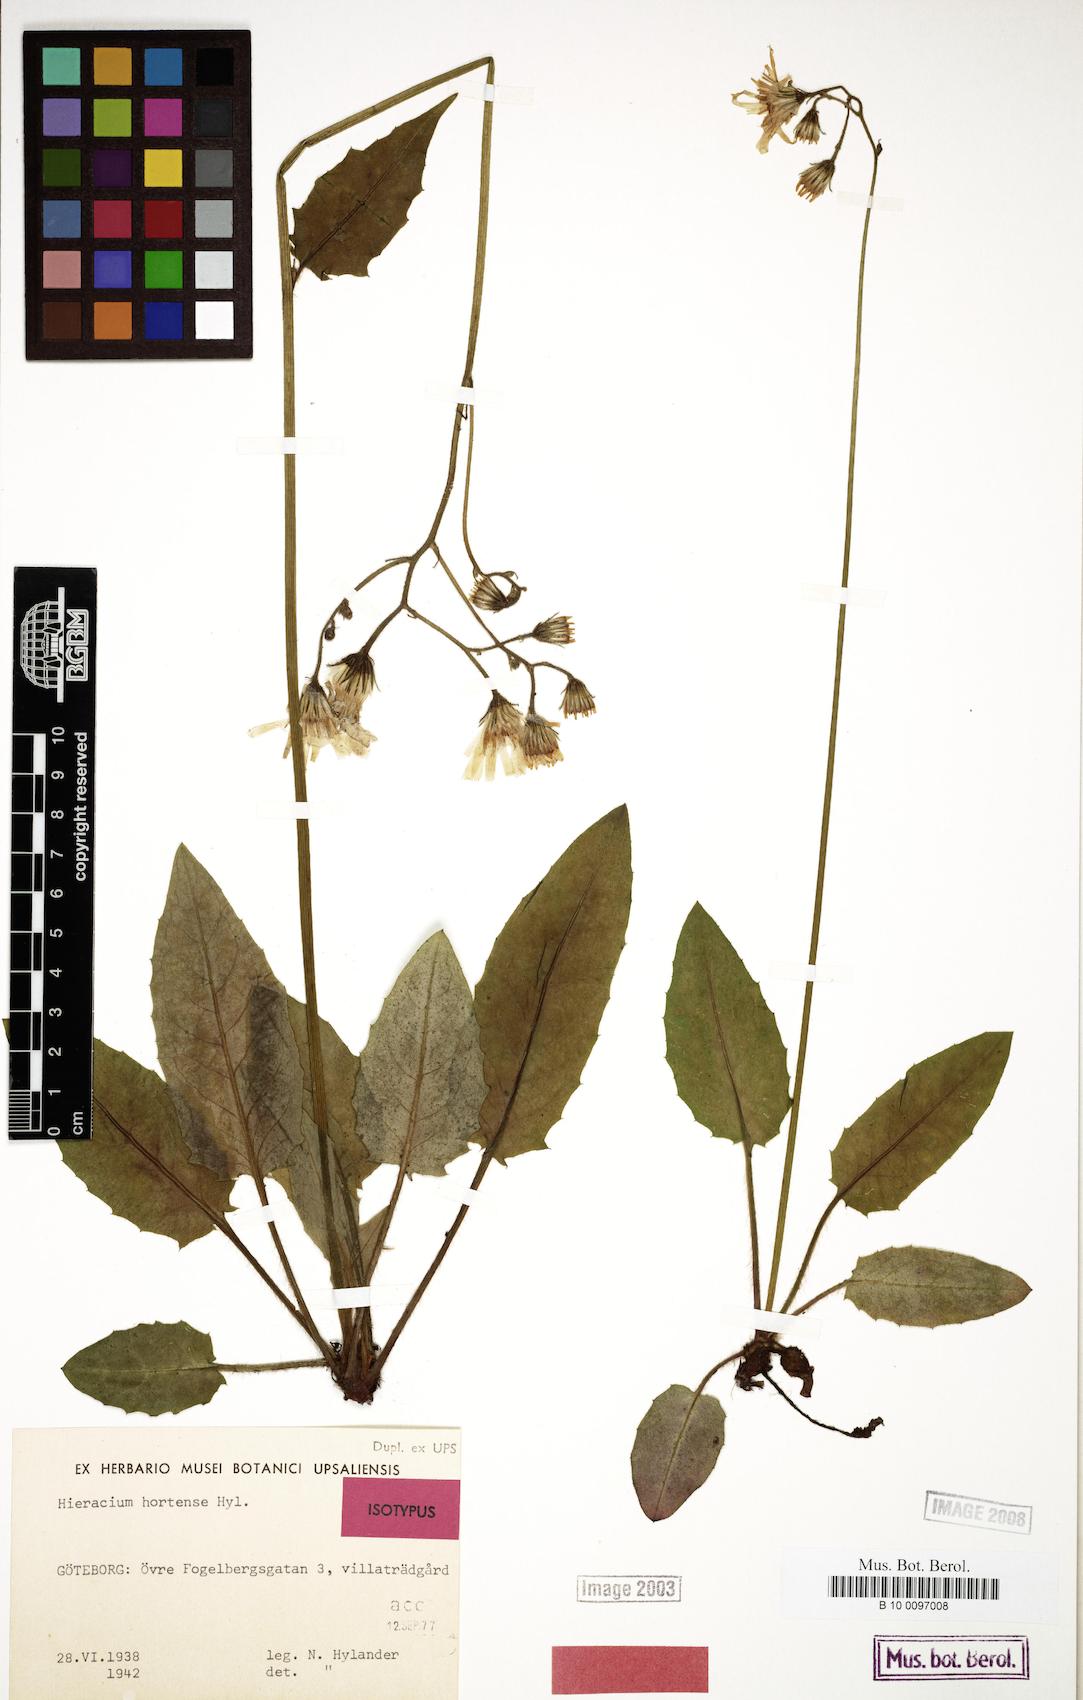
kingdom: Plantae
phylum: Tracheophyta
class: Magnoliopsida
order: Asterales
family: Asteraceae
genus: Hieracium
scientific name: Hieracium hortense
